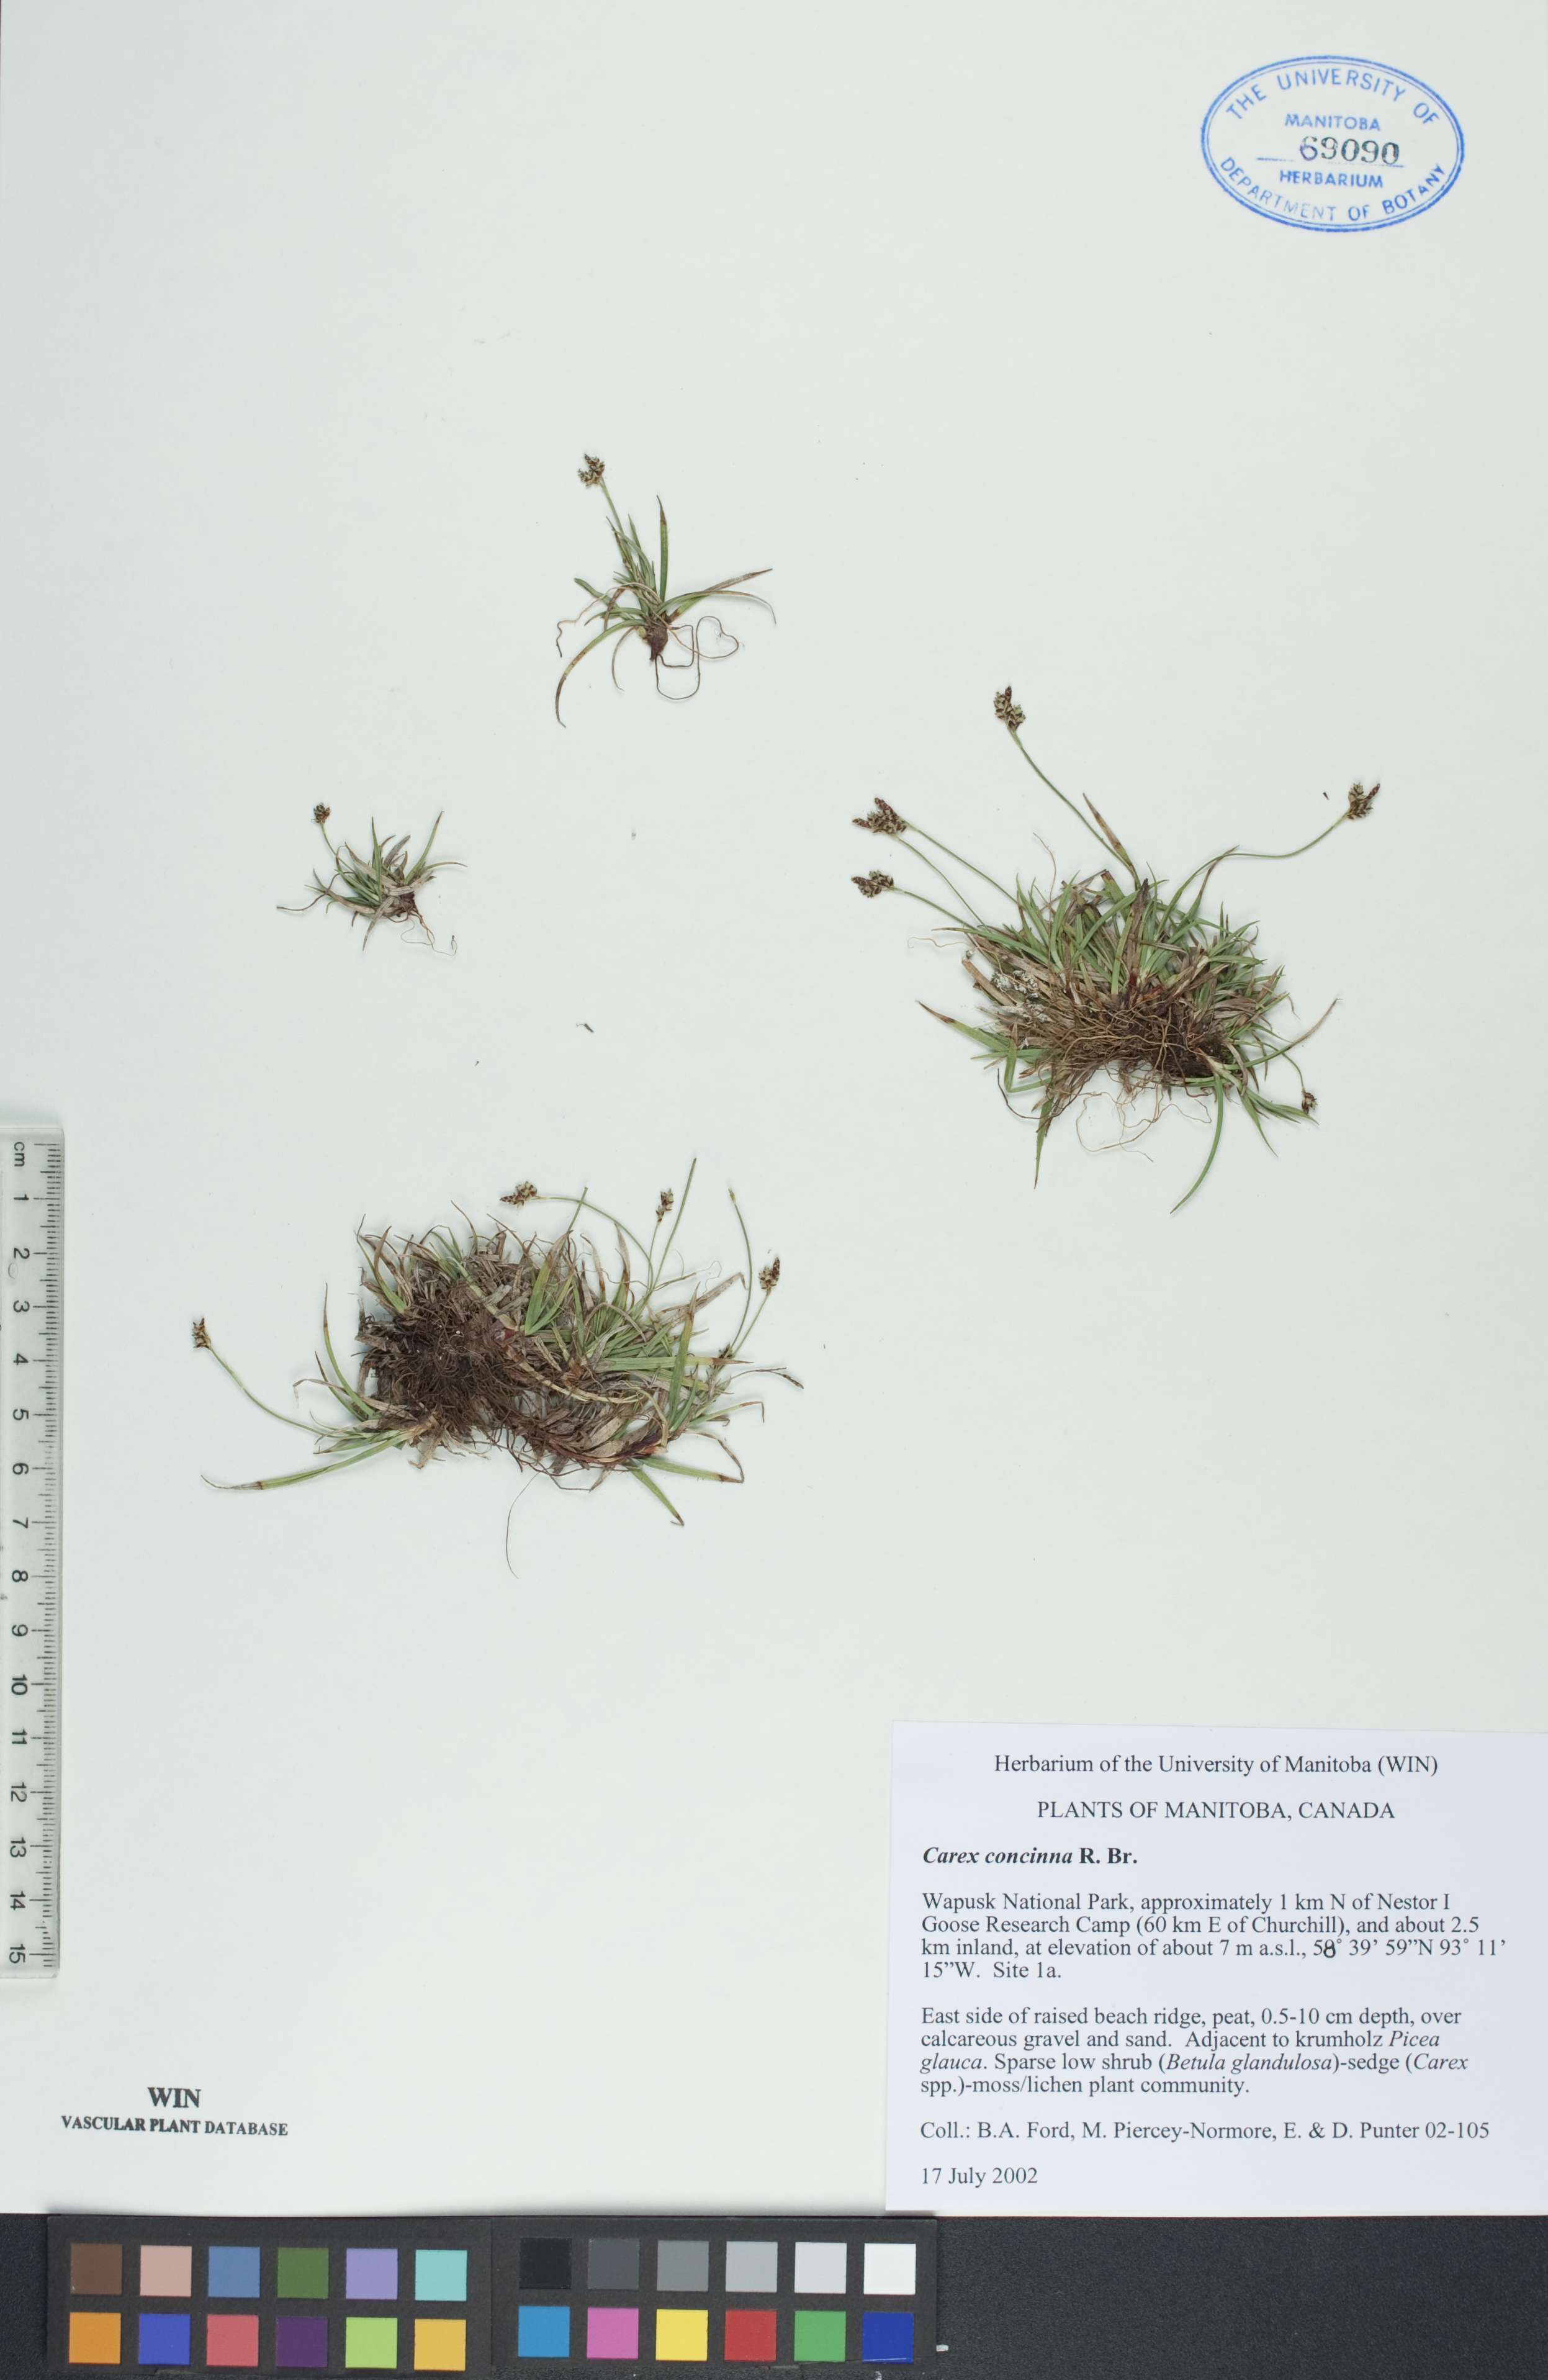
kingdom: Plantae
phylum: Tracheophyta
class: Liliopsida
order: Poales
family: Cyperaceae
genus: Carex
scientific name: Carex concinna
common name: Beautiful sedge
